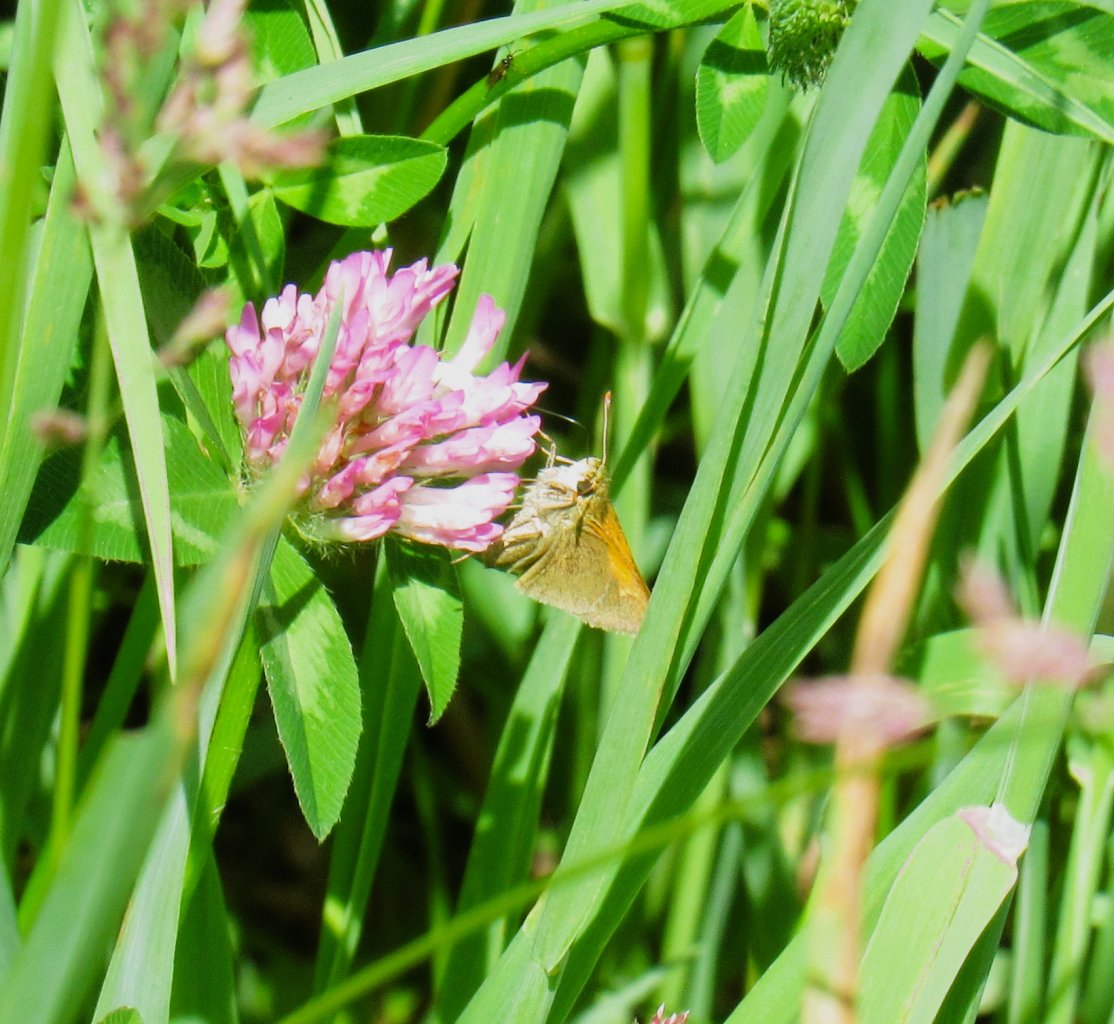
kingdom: Animalia
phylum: Arthropoda
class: Insecta
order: Lepidoptera
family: Hesperiidae
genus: Polites
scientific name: Polites themistocles
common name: Tawny-edged Skipper
